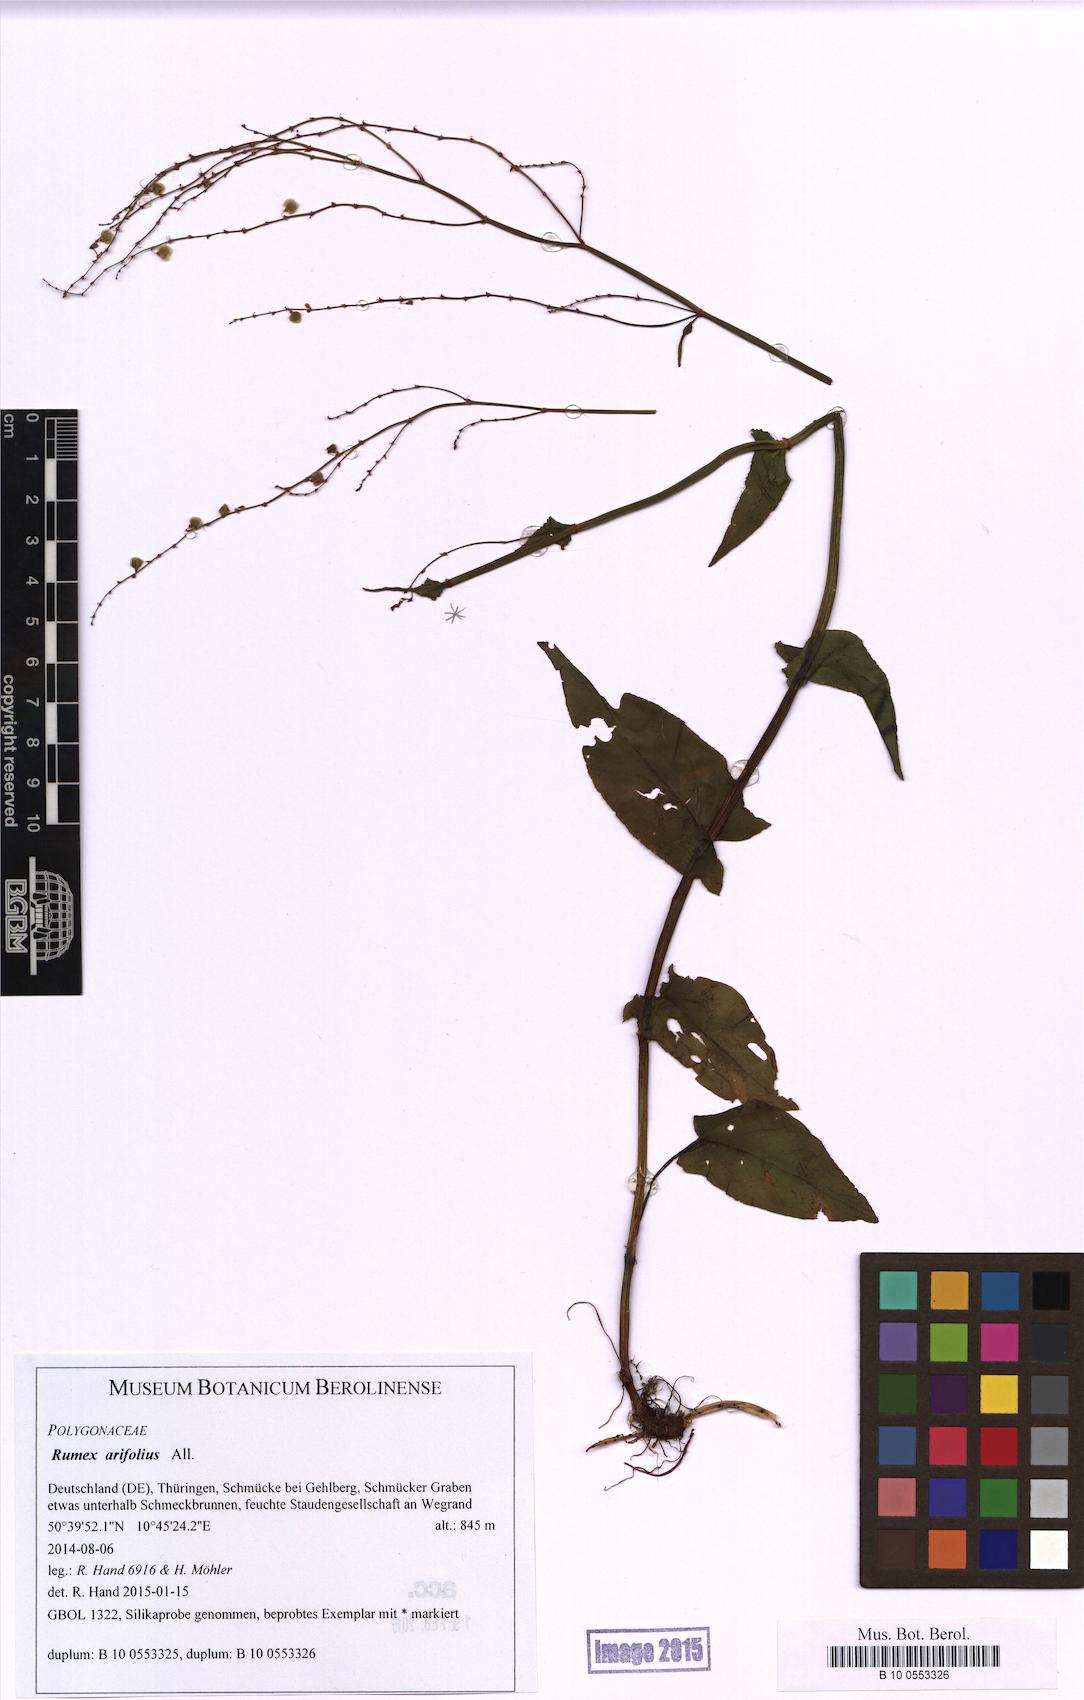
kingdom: Plantae
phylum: Tracheophyta
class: Magnoliopsida
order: Caryophyllales
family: Polygonaceae
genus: Rumex
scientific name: Rumex arifolius
